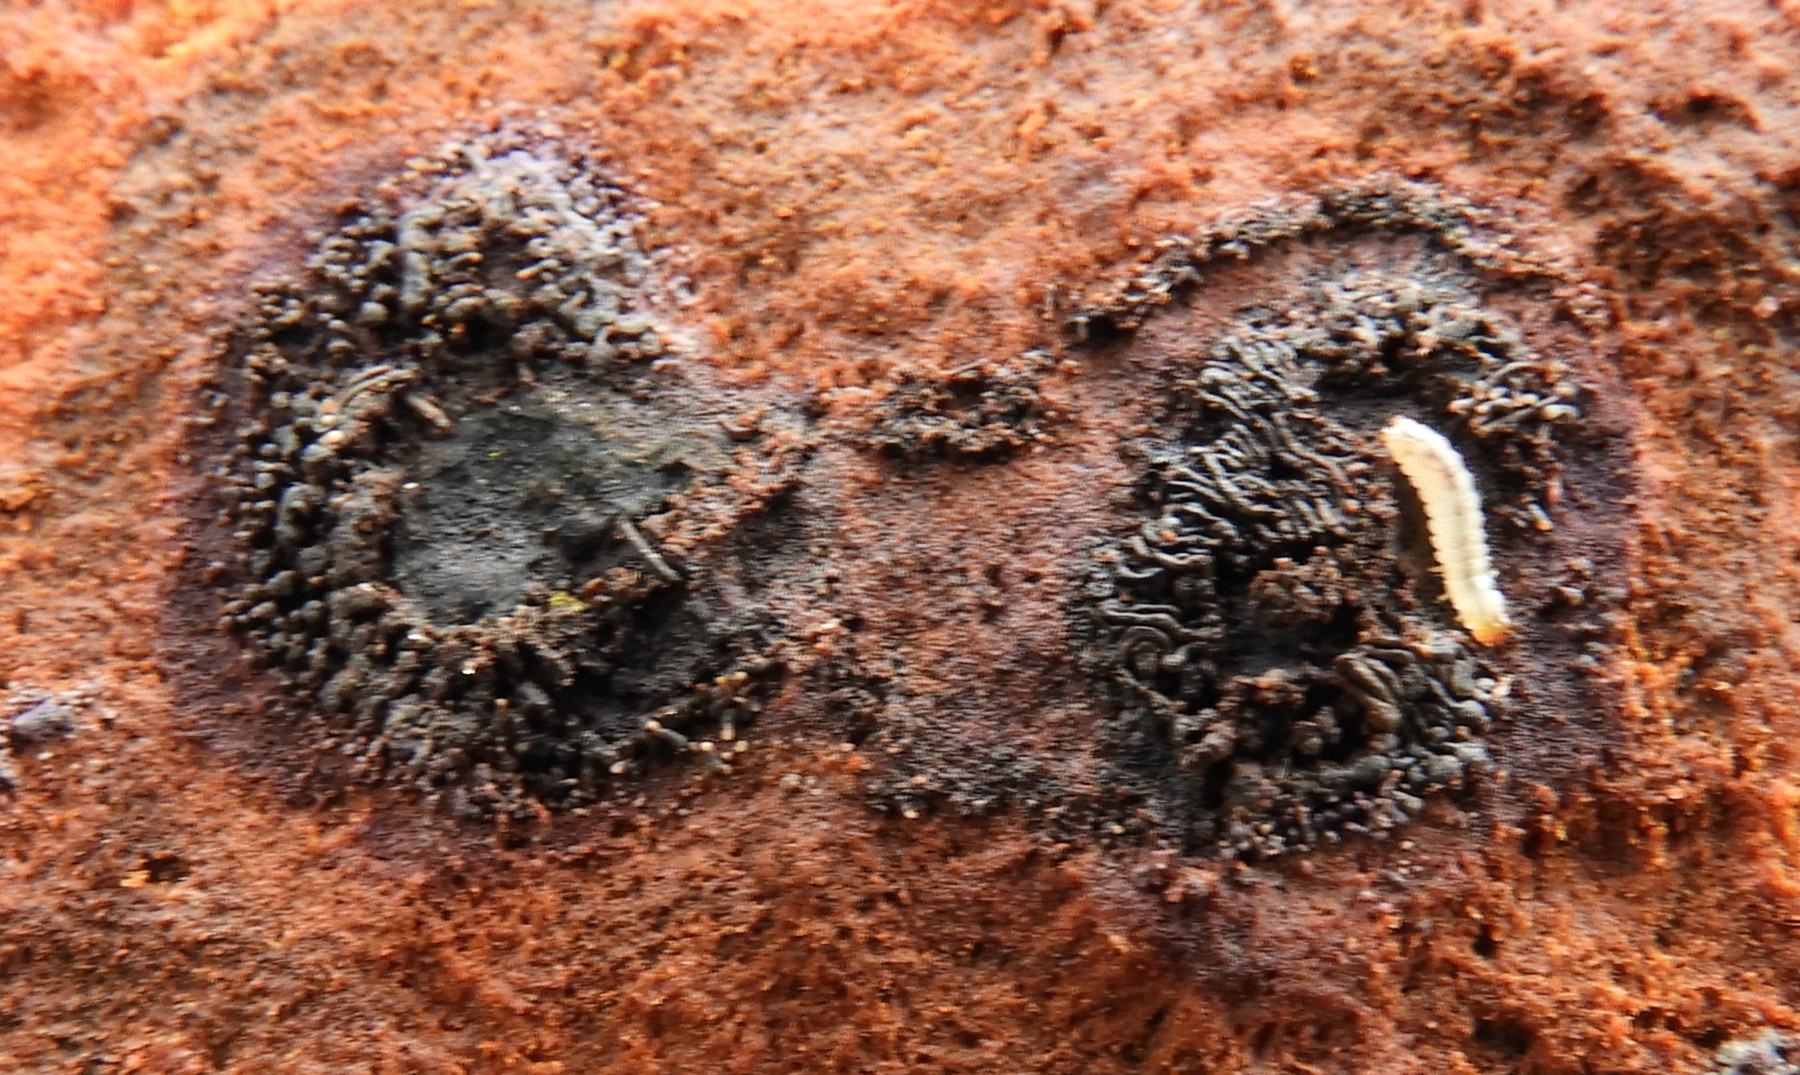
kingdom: Fungi
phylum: Ascomycota
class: Sordariomycetes
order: Calosphaeriales
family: Calosphaeriaceae
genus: Calosphaeria
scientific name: Calosphaeria pulchella
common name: smuk slyngkerne
